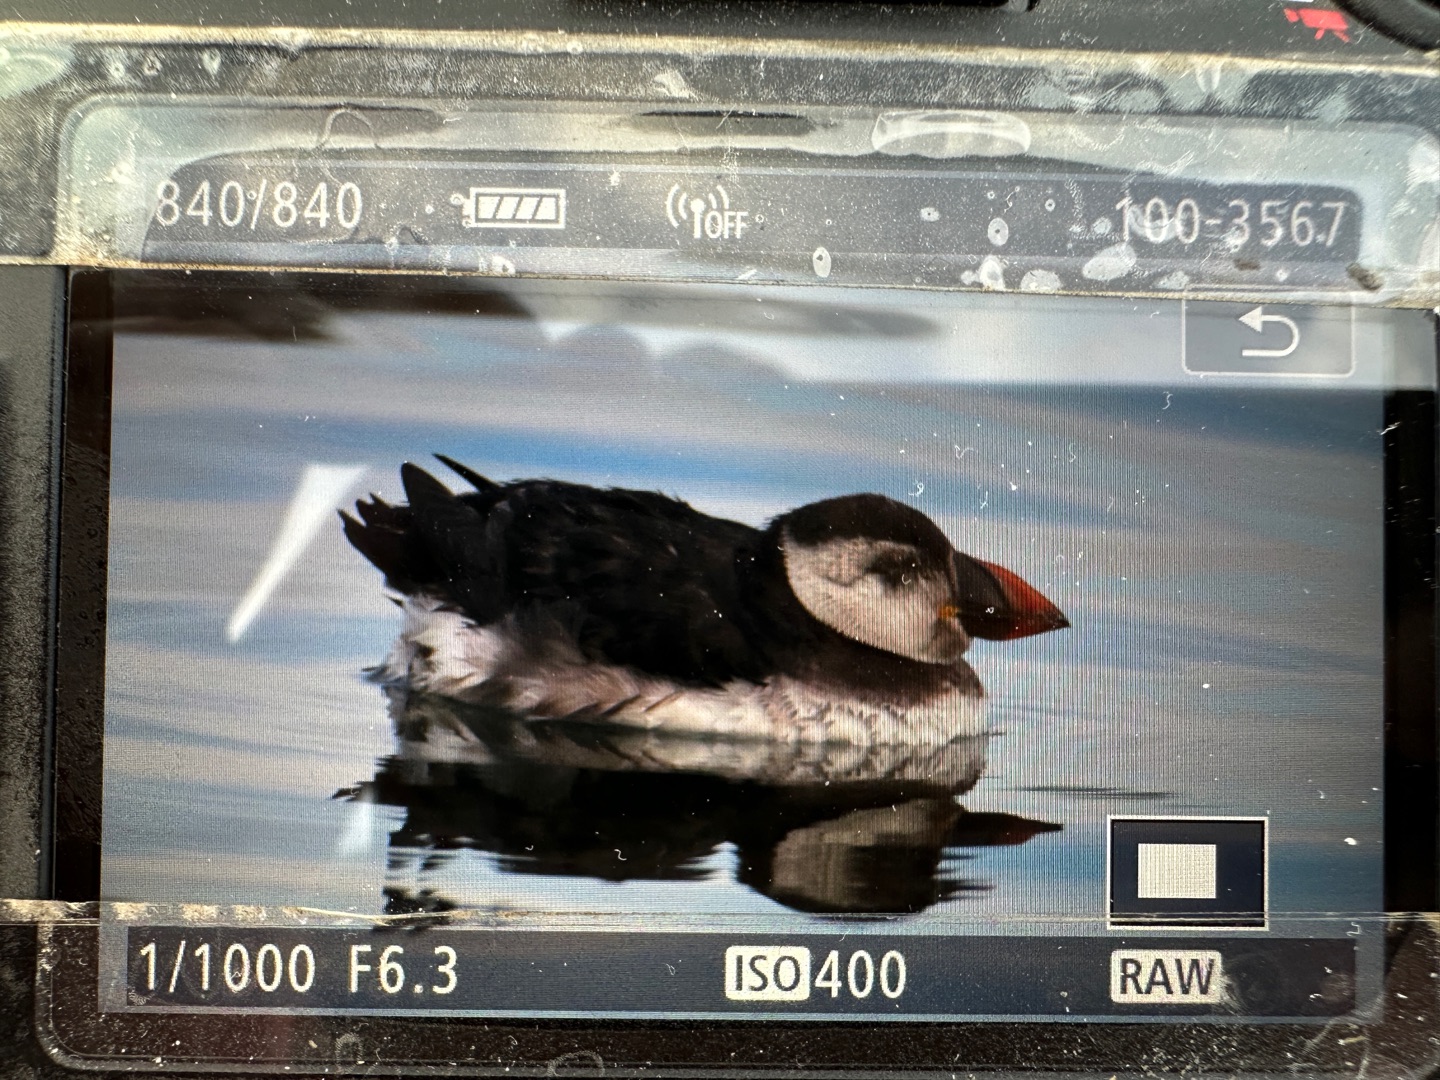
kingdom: Animalia
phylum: Chordata
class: Aves
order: Charadriiformes
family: Alcidae
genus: Fratercula
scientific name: Fratercula arctica
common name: Lunde
